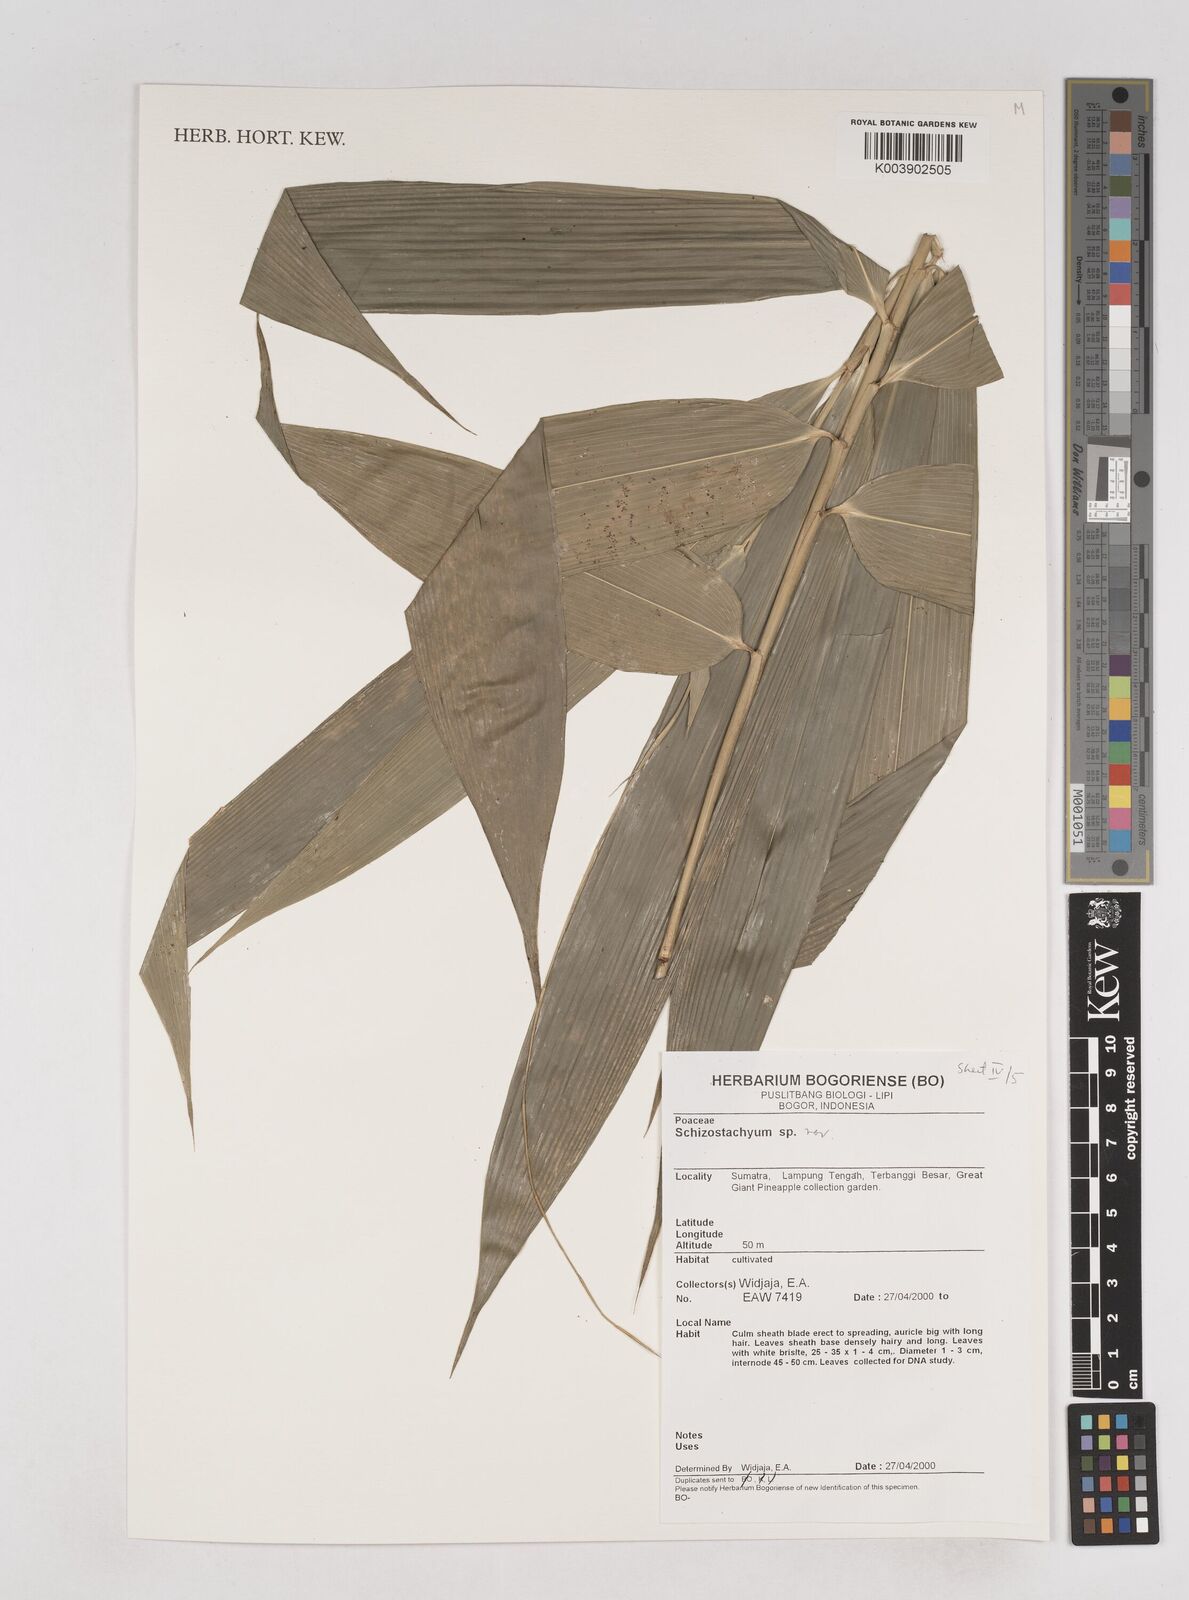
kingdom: Plantae
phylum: Tracheophyta
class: Liliopsida
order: Poales
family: Poaceae
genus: Schizostachyum
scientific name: Schizostachyum
